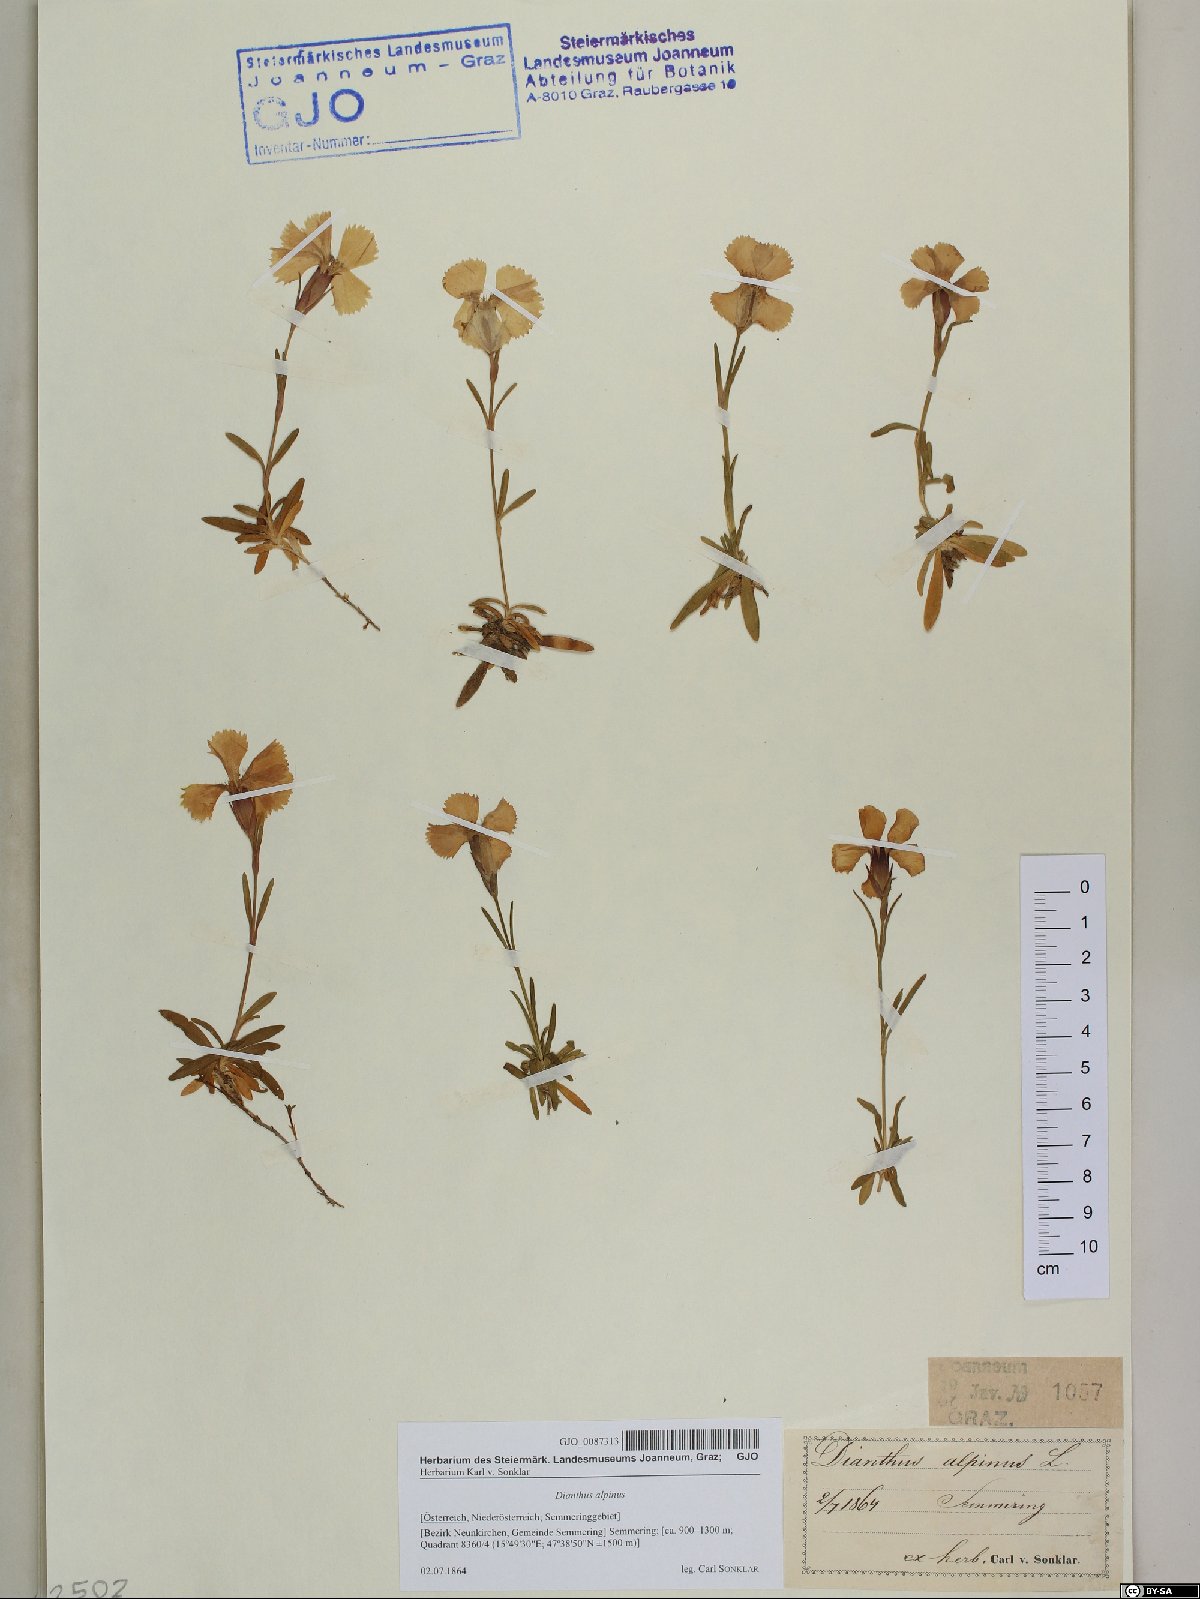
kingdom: Plantae
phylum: Tracheophyta
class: Magnoliopsida
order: Caryophyllales
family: Caryophyllaceae
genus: Dianthus
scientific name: Dianthus alpinus
